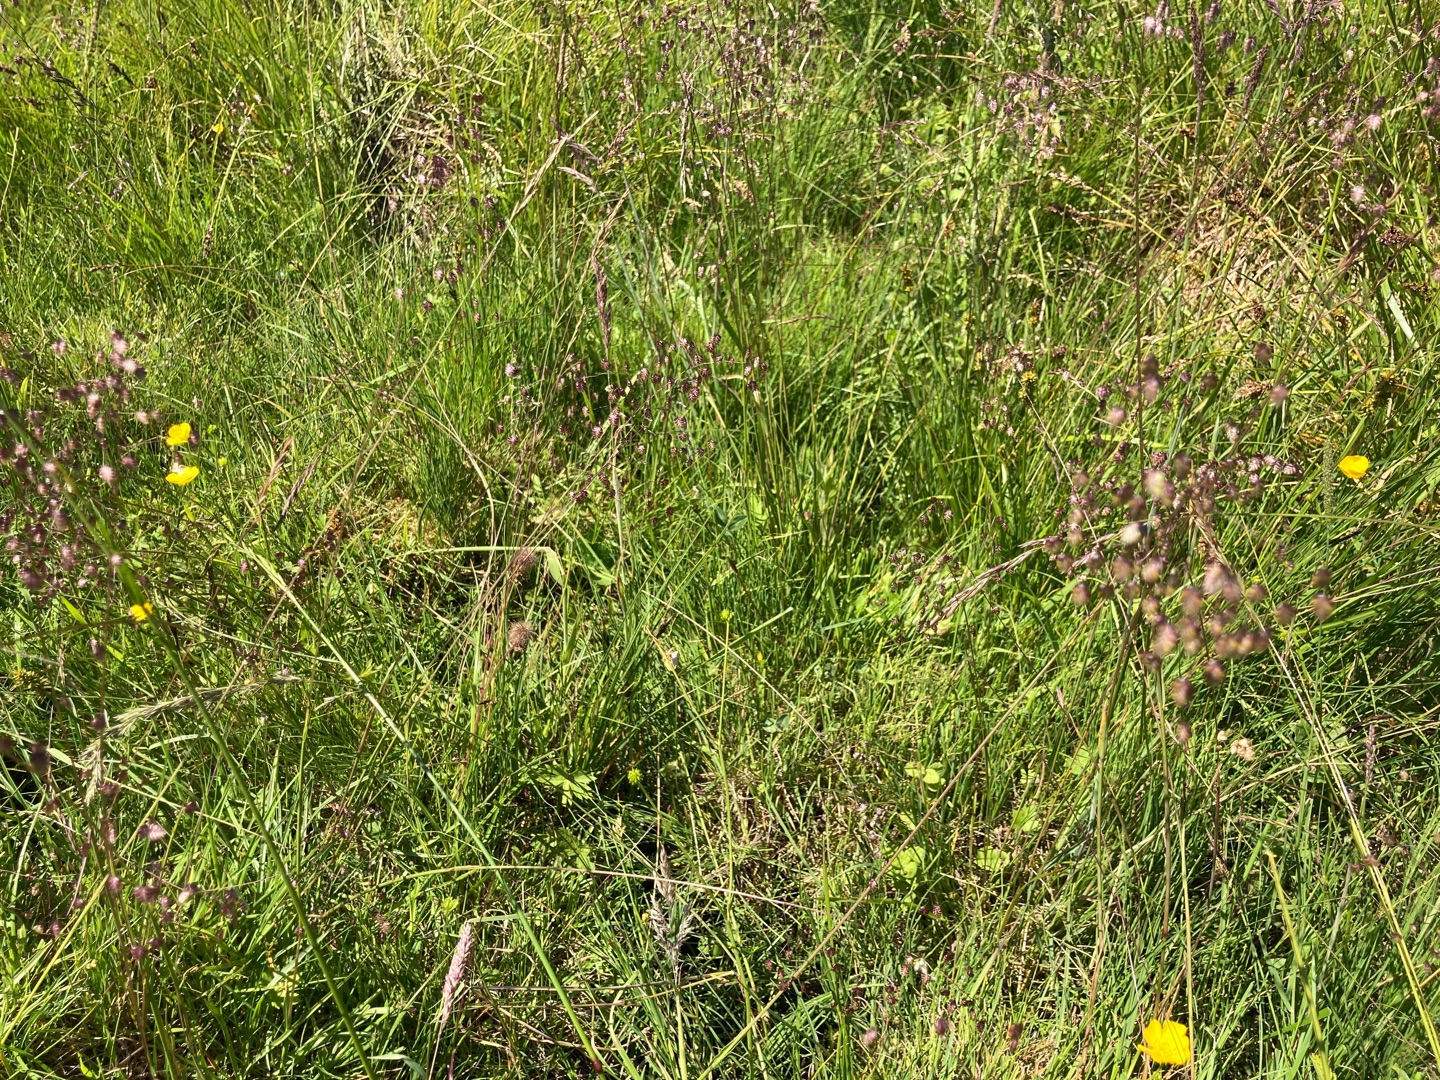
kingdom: Plantae
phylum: Tracheophyta
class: Liliopsida
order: Poales
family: Poaceae
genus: Briza
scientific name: Briza media
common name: Hjertegræs
